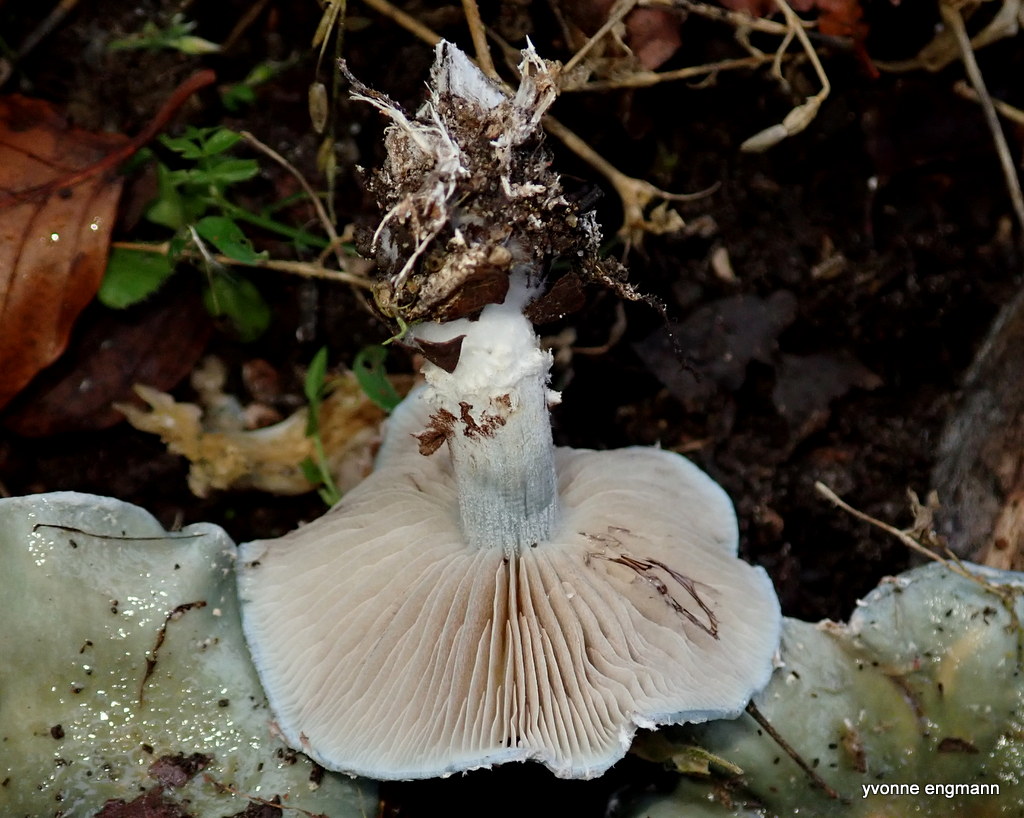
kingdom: Fungi
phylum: Basidiomycota
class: Agaricomycetes
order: Agaricales
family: Strophariaceae
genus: Stropharia
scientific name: Stropharia cyanea
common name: blågrøn bredblad
